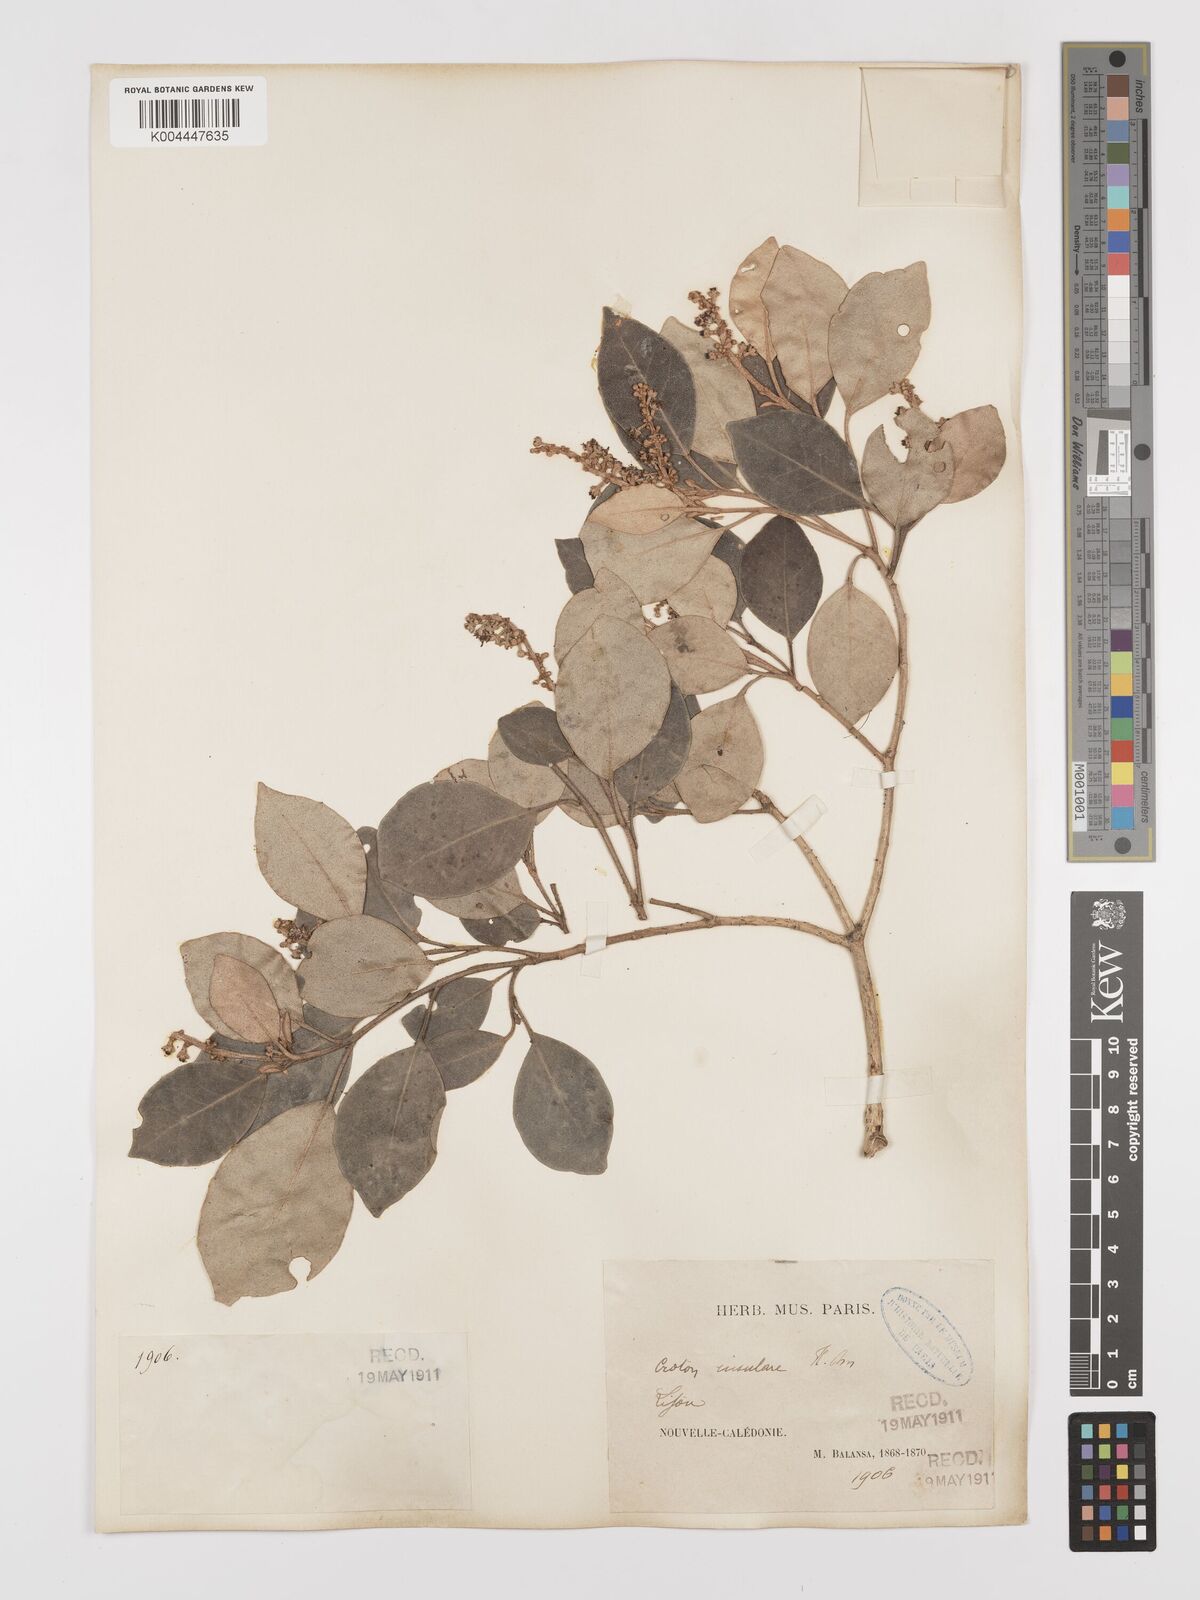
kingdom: Plantae
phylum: Tracheophyta
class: Magnoliopsida
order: Malpighiales
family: Euphorbiaceae
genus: Croton
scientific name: Croton insularis
